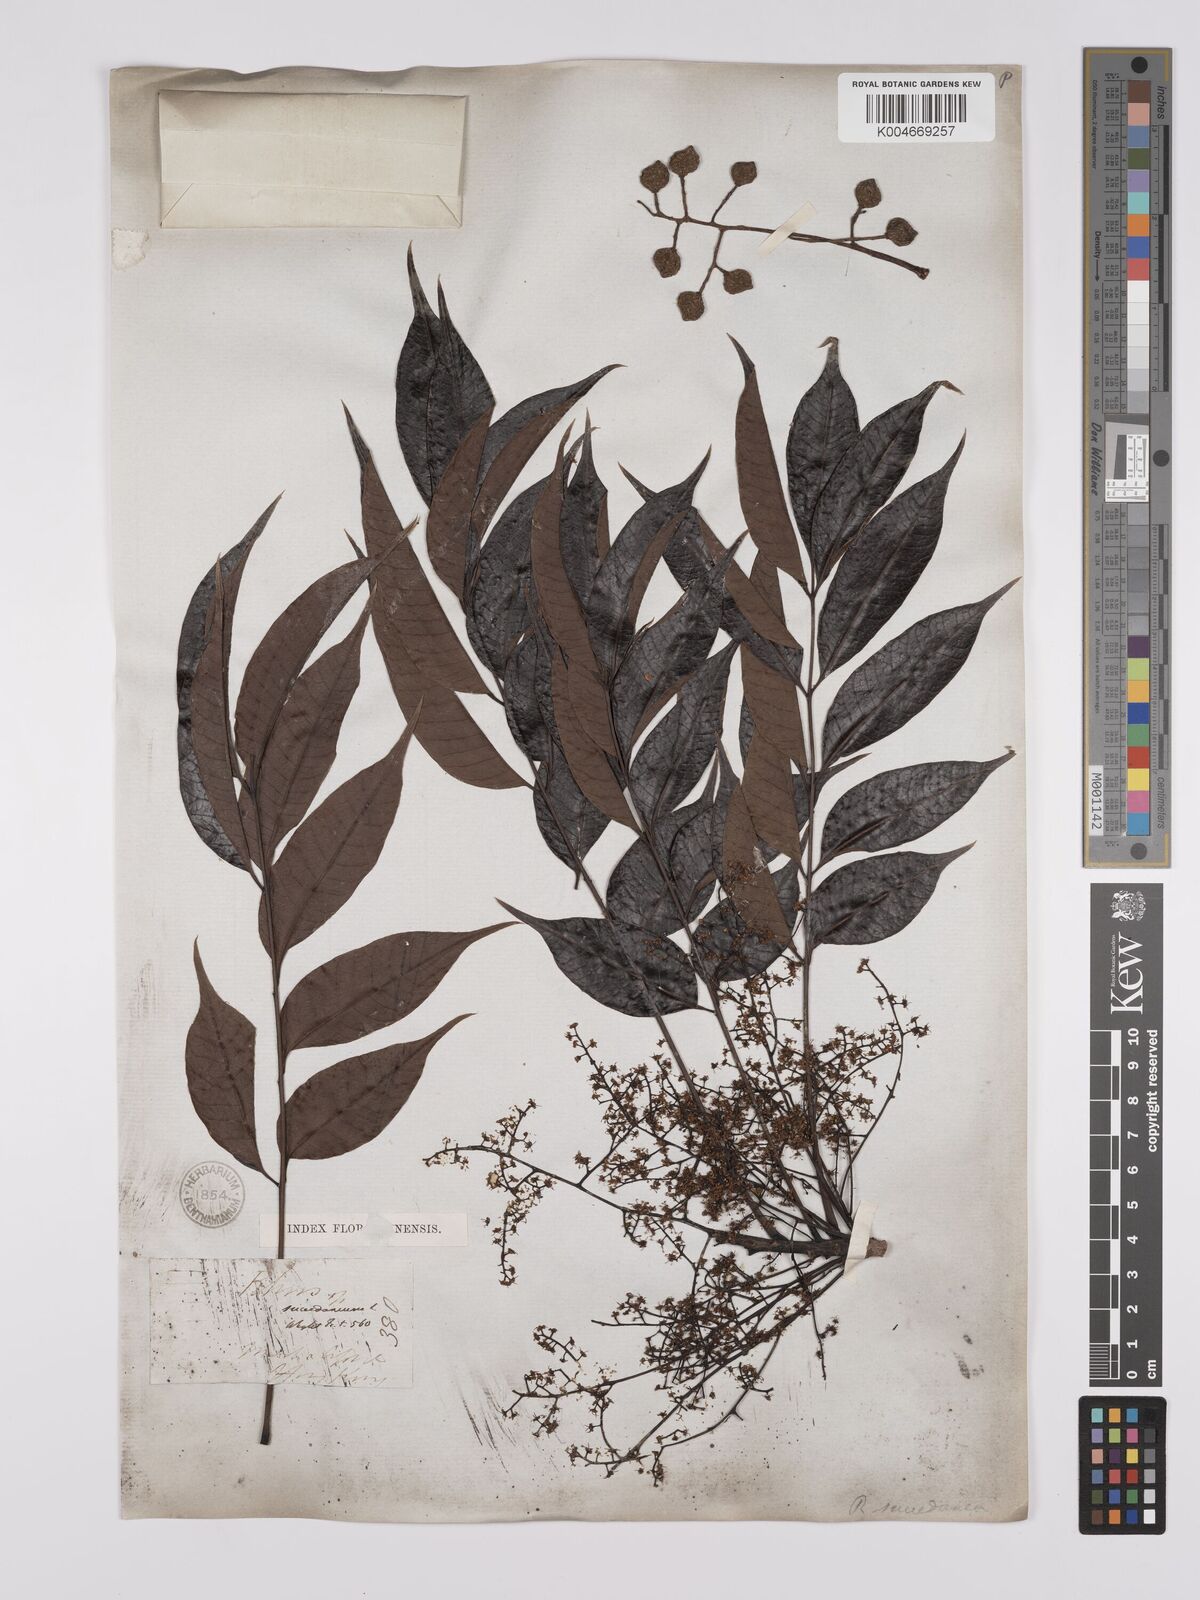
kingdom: Plantae
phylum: Tracheophyta
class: Magnoliopsida
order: Sapindales
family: Anacardiaceae
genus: Toxicodendron
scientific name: Toxicodendron succedaneum
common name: Wax tree
